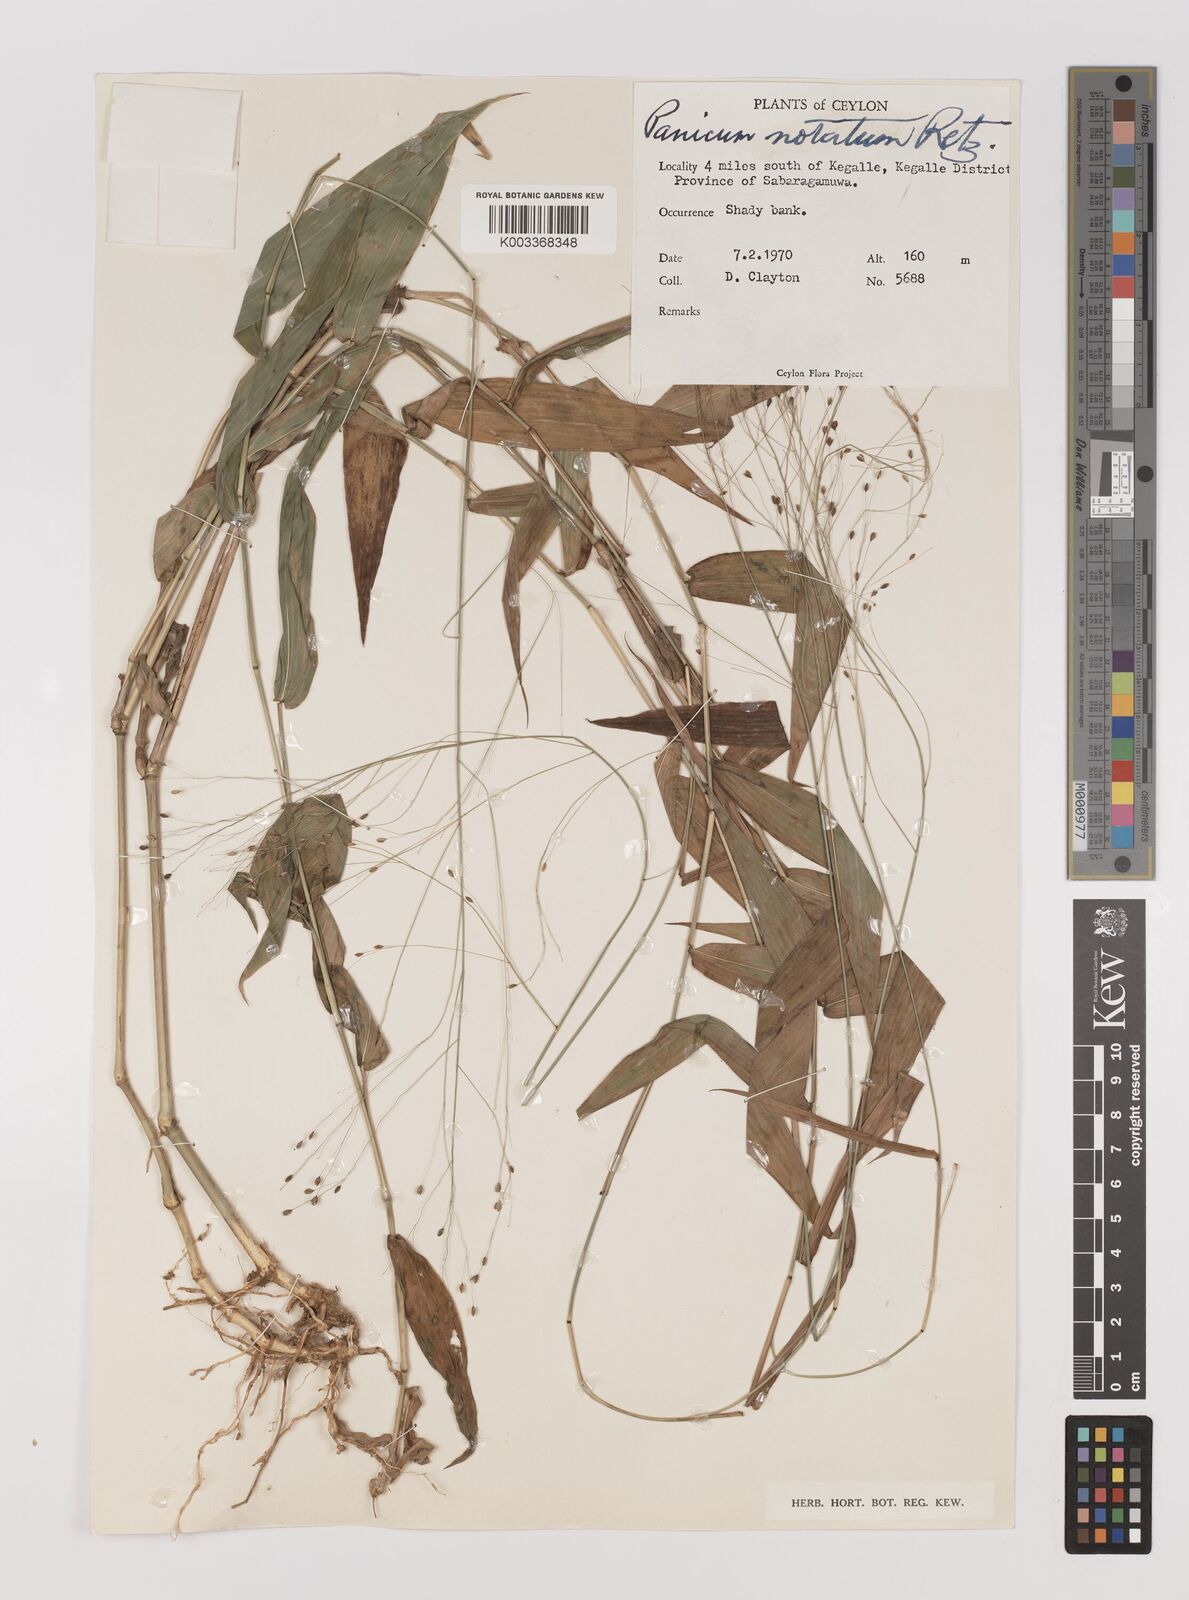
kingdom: Plantae
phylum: Tracheophyta
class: Liliopsida
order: Poales
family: Poaceae
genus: Panicum
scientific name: Panicum notatum
